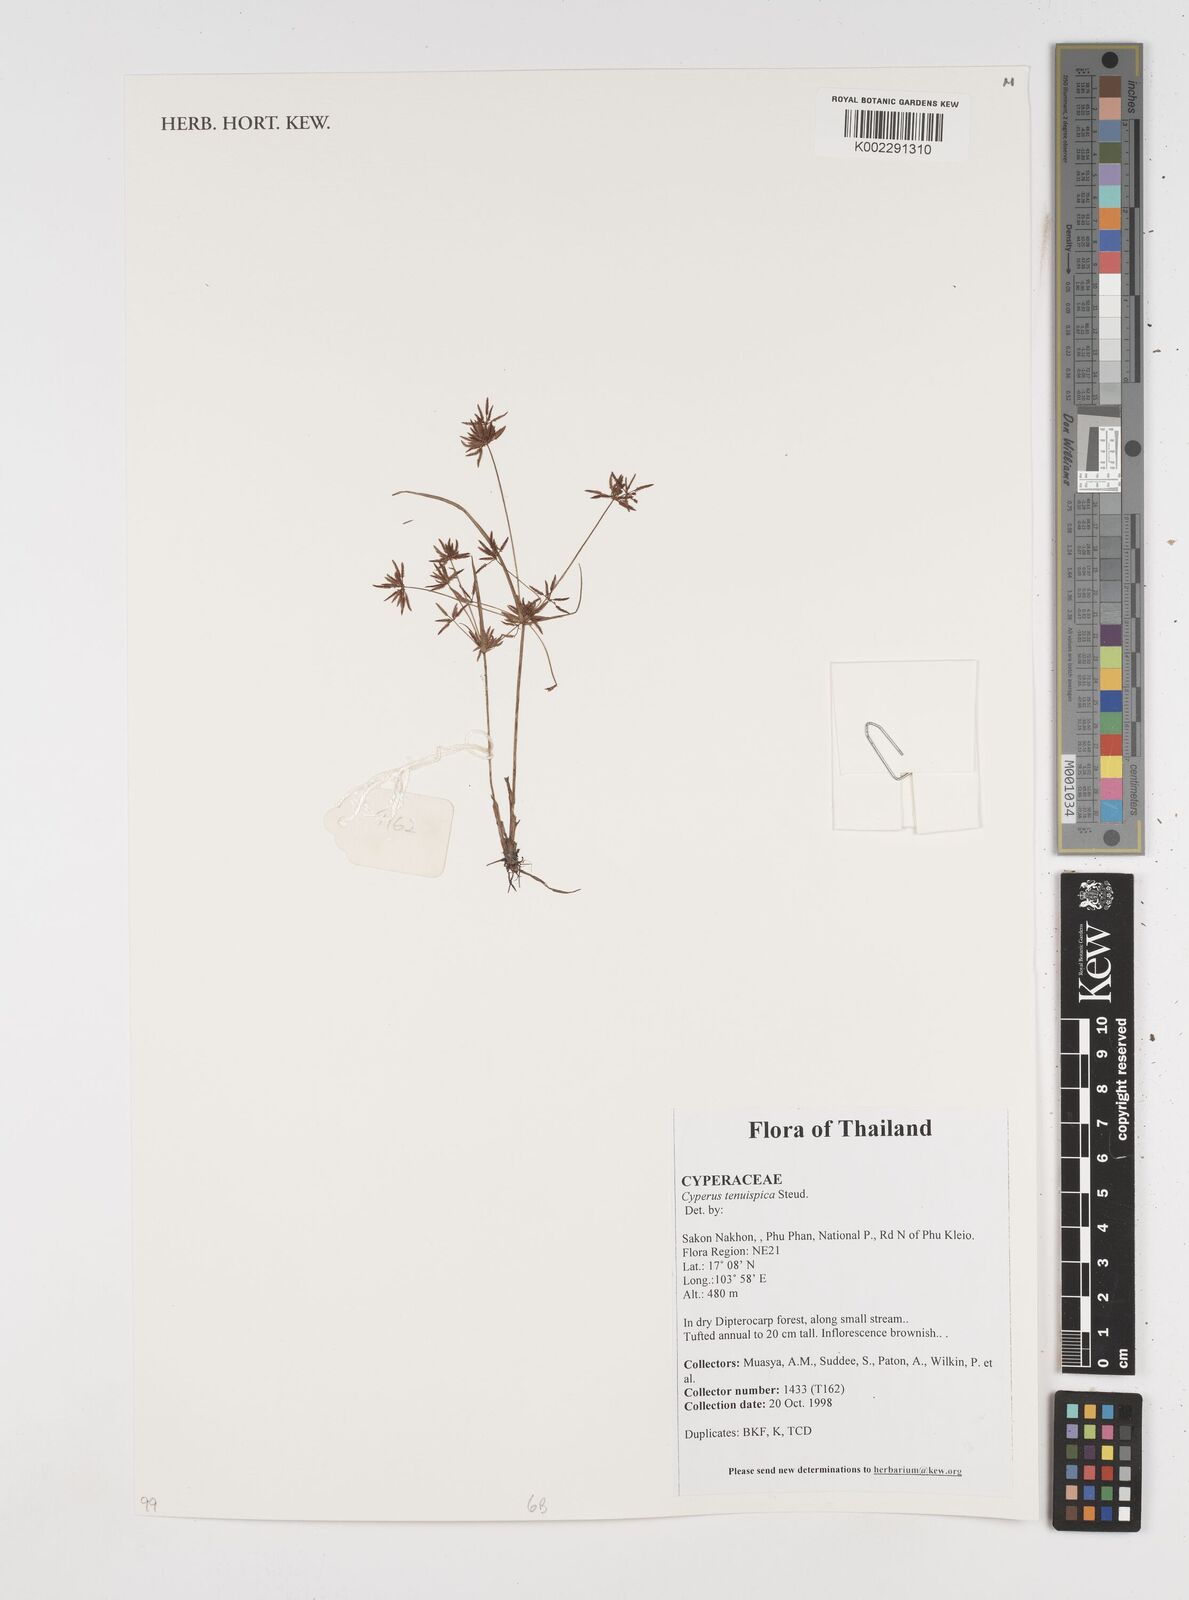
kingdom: Plantae
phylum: Tracheophyta
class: Liliopsida
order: Poales
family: Cyperaceae
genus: Cyperus
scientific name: Cyperus tenuispica
